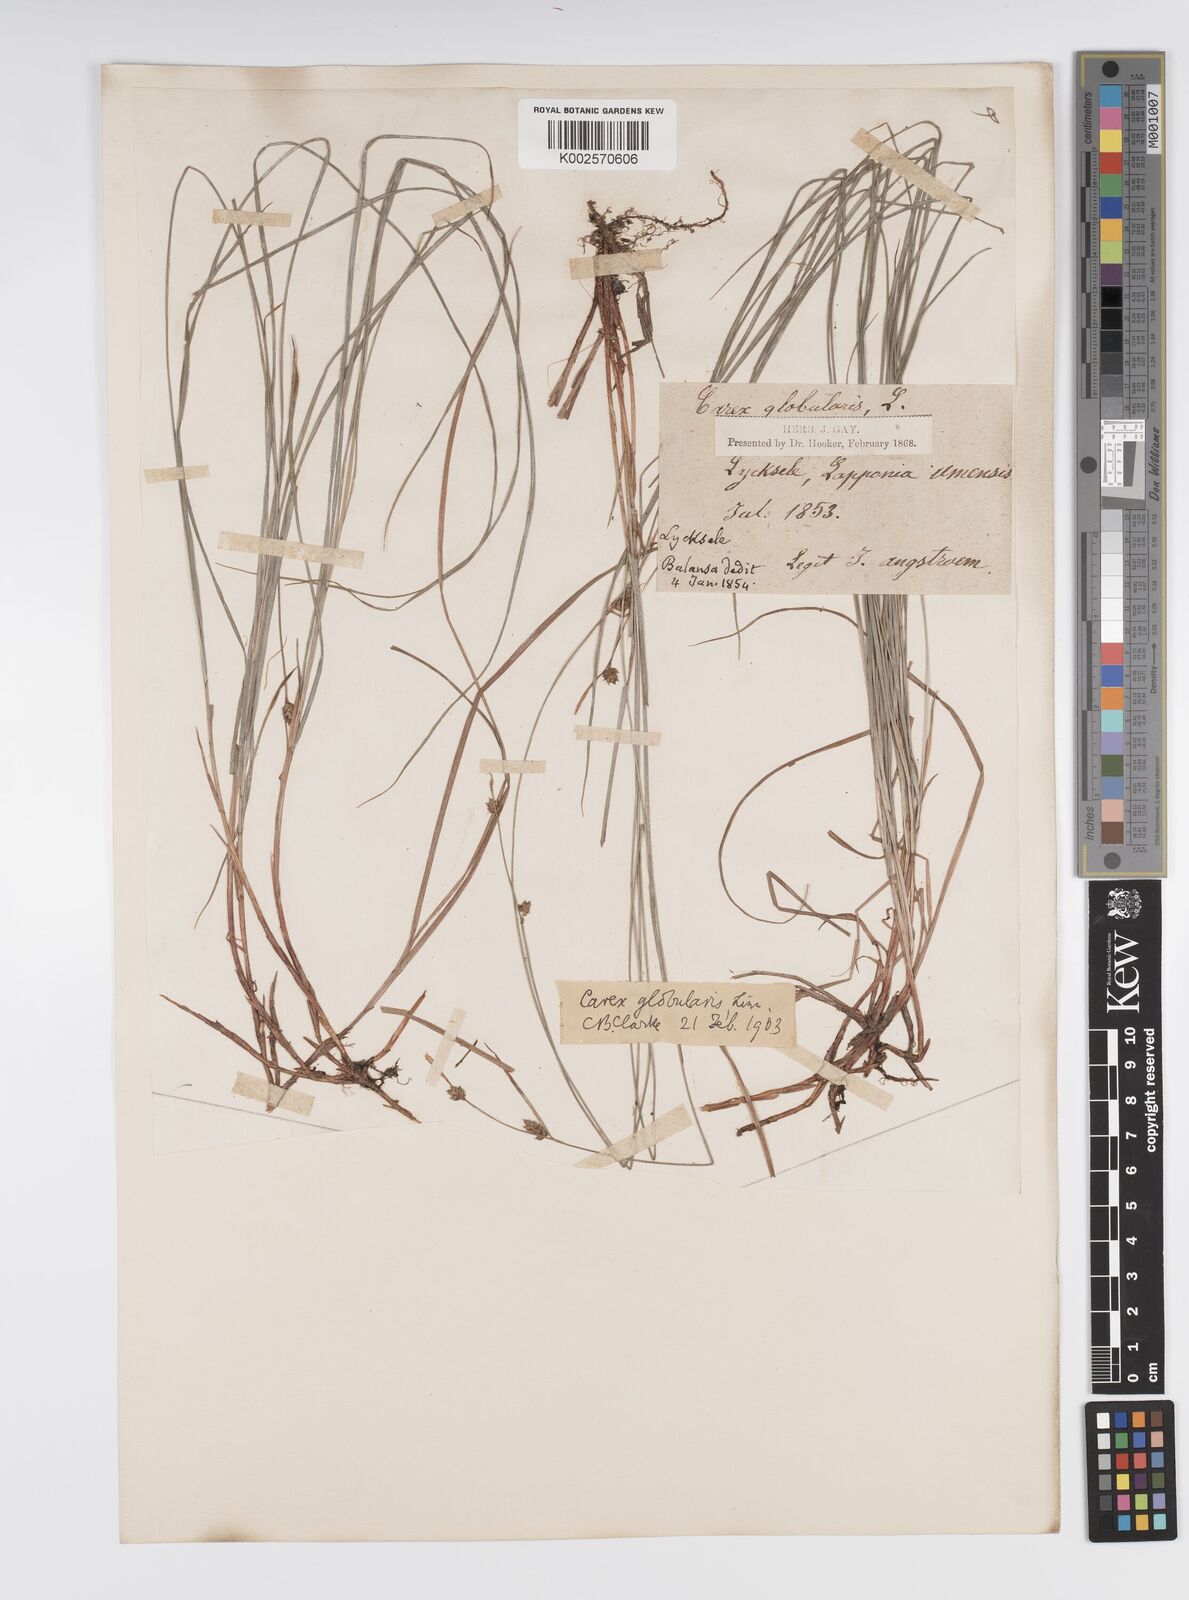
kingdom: Plantae
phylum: Tracheophyta
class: Liliopsida
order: Poales
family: Cyperaceae
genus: Carex
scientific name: Carex globularis
